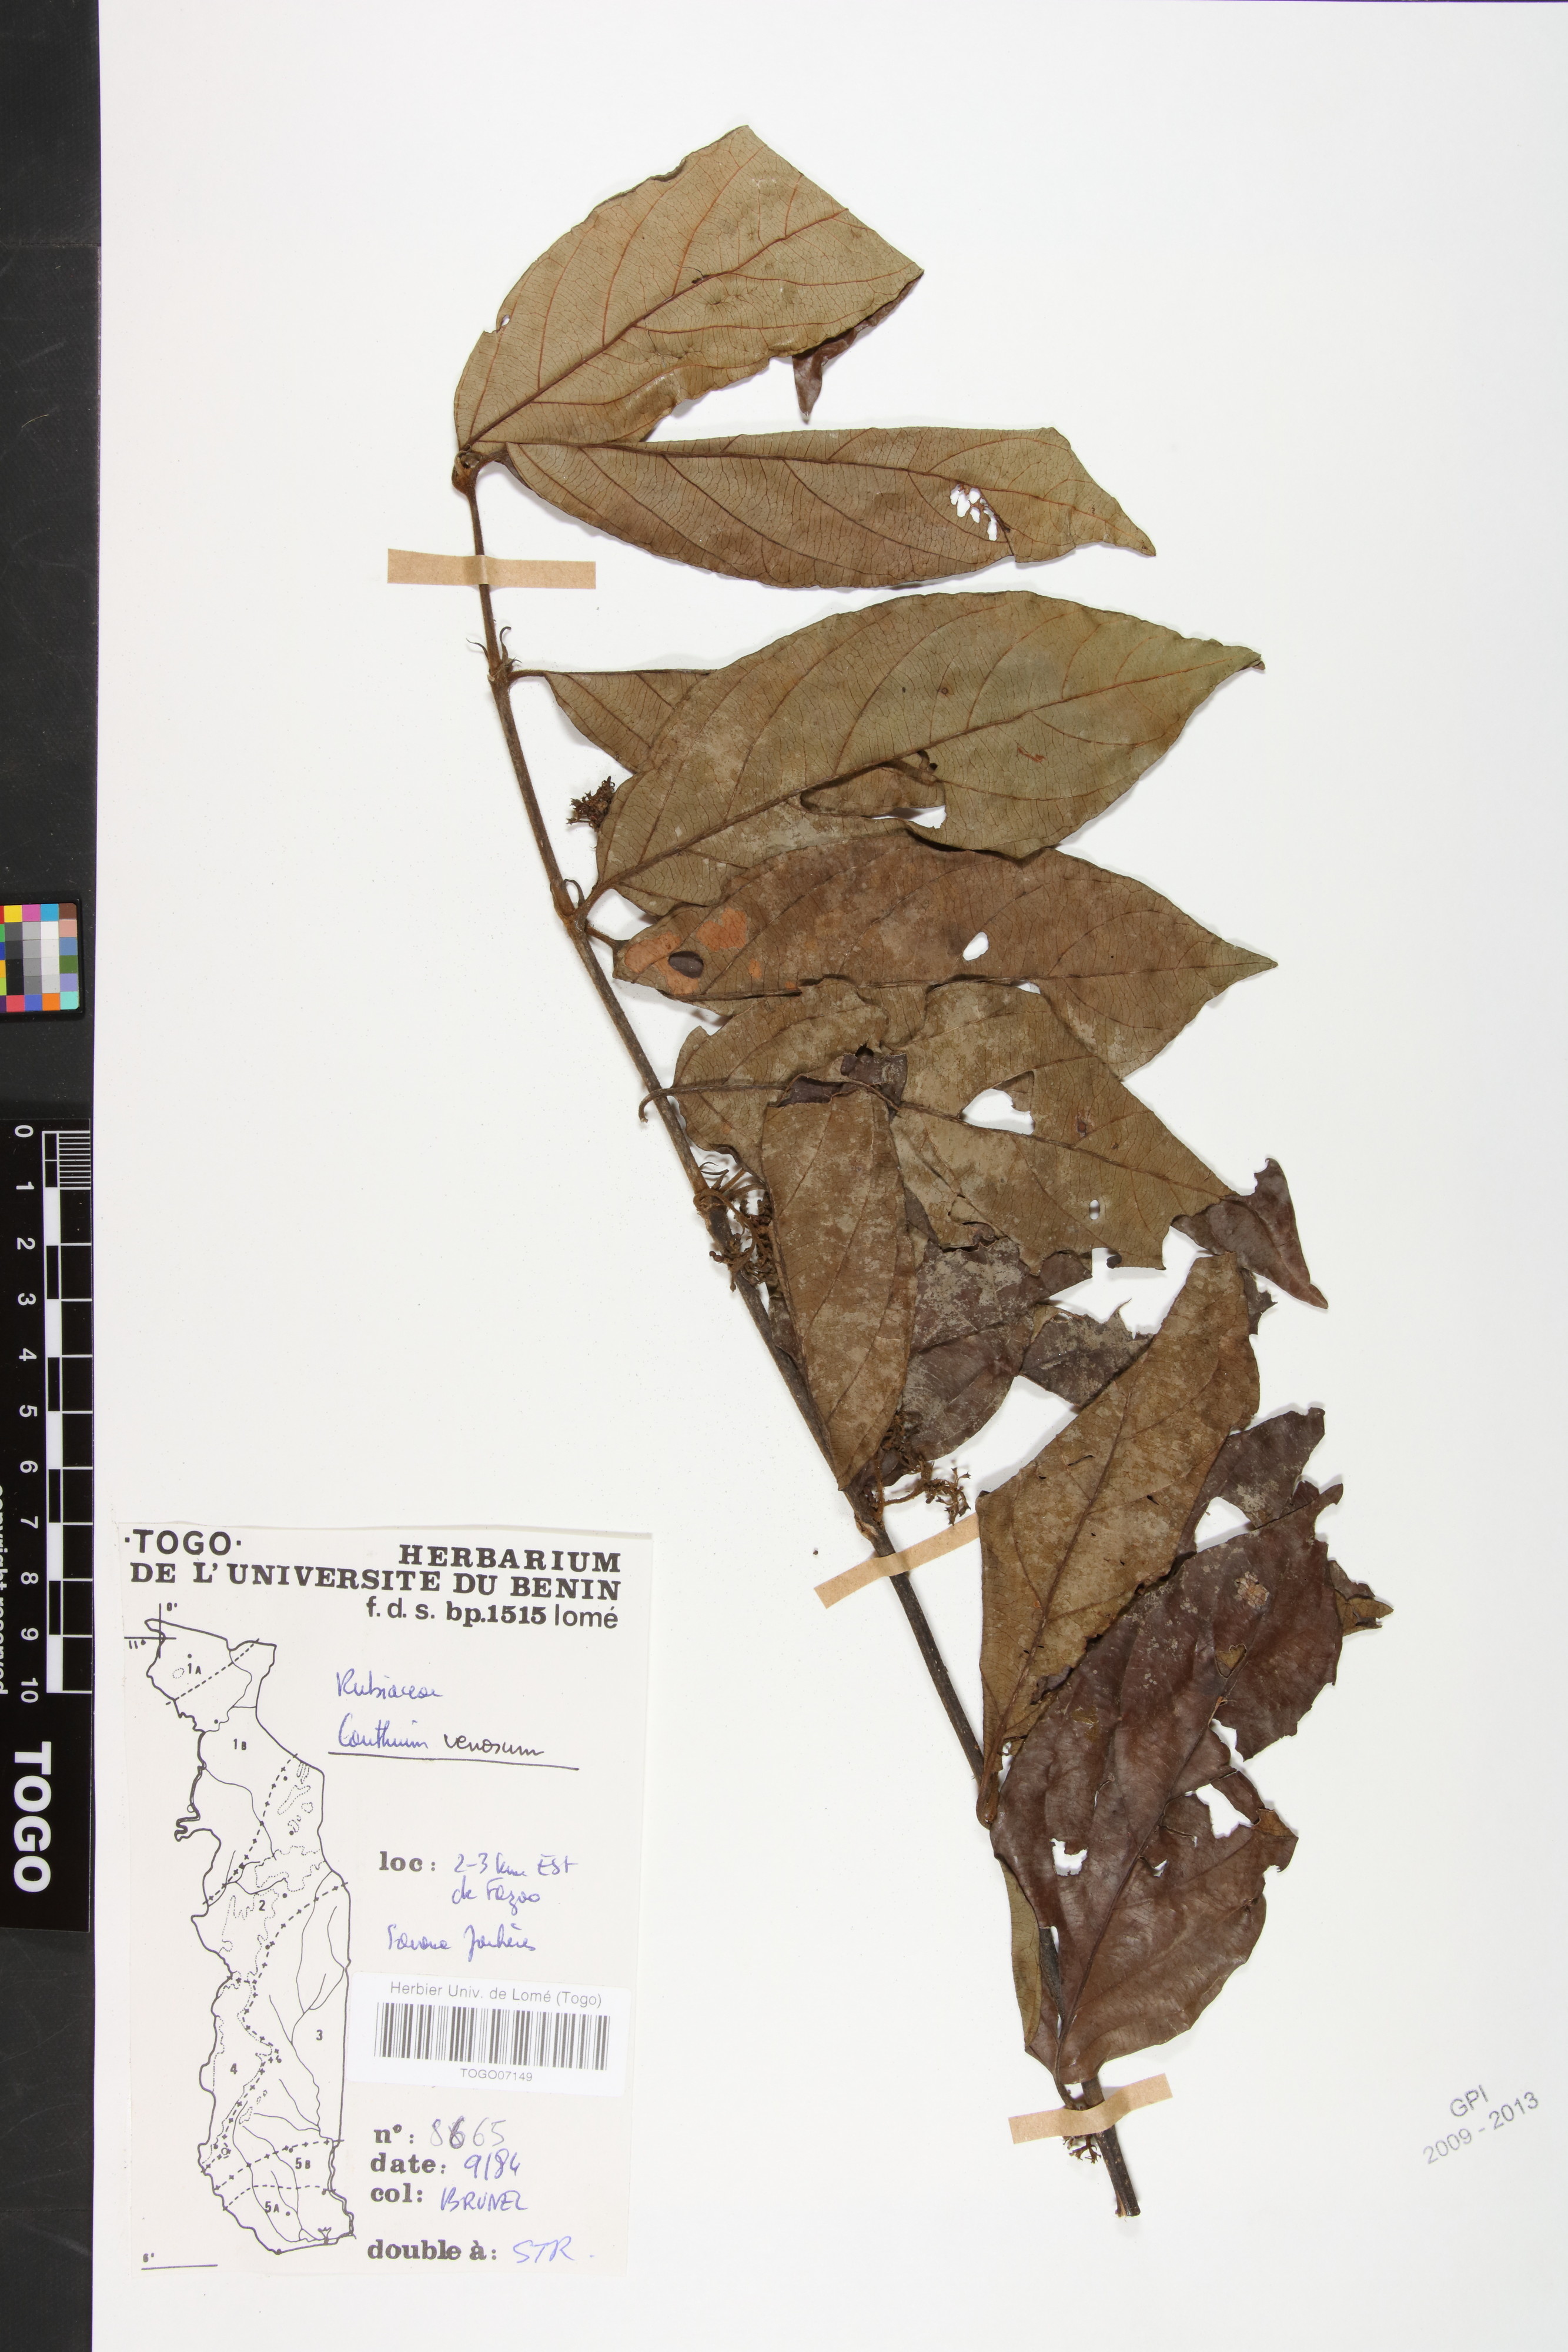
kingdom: Plantae
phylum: Tracheophyta
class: Magnoliopsida
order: Gentianales
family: Rubiaceae
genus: Keetia
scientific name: Keetia venosa
